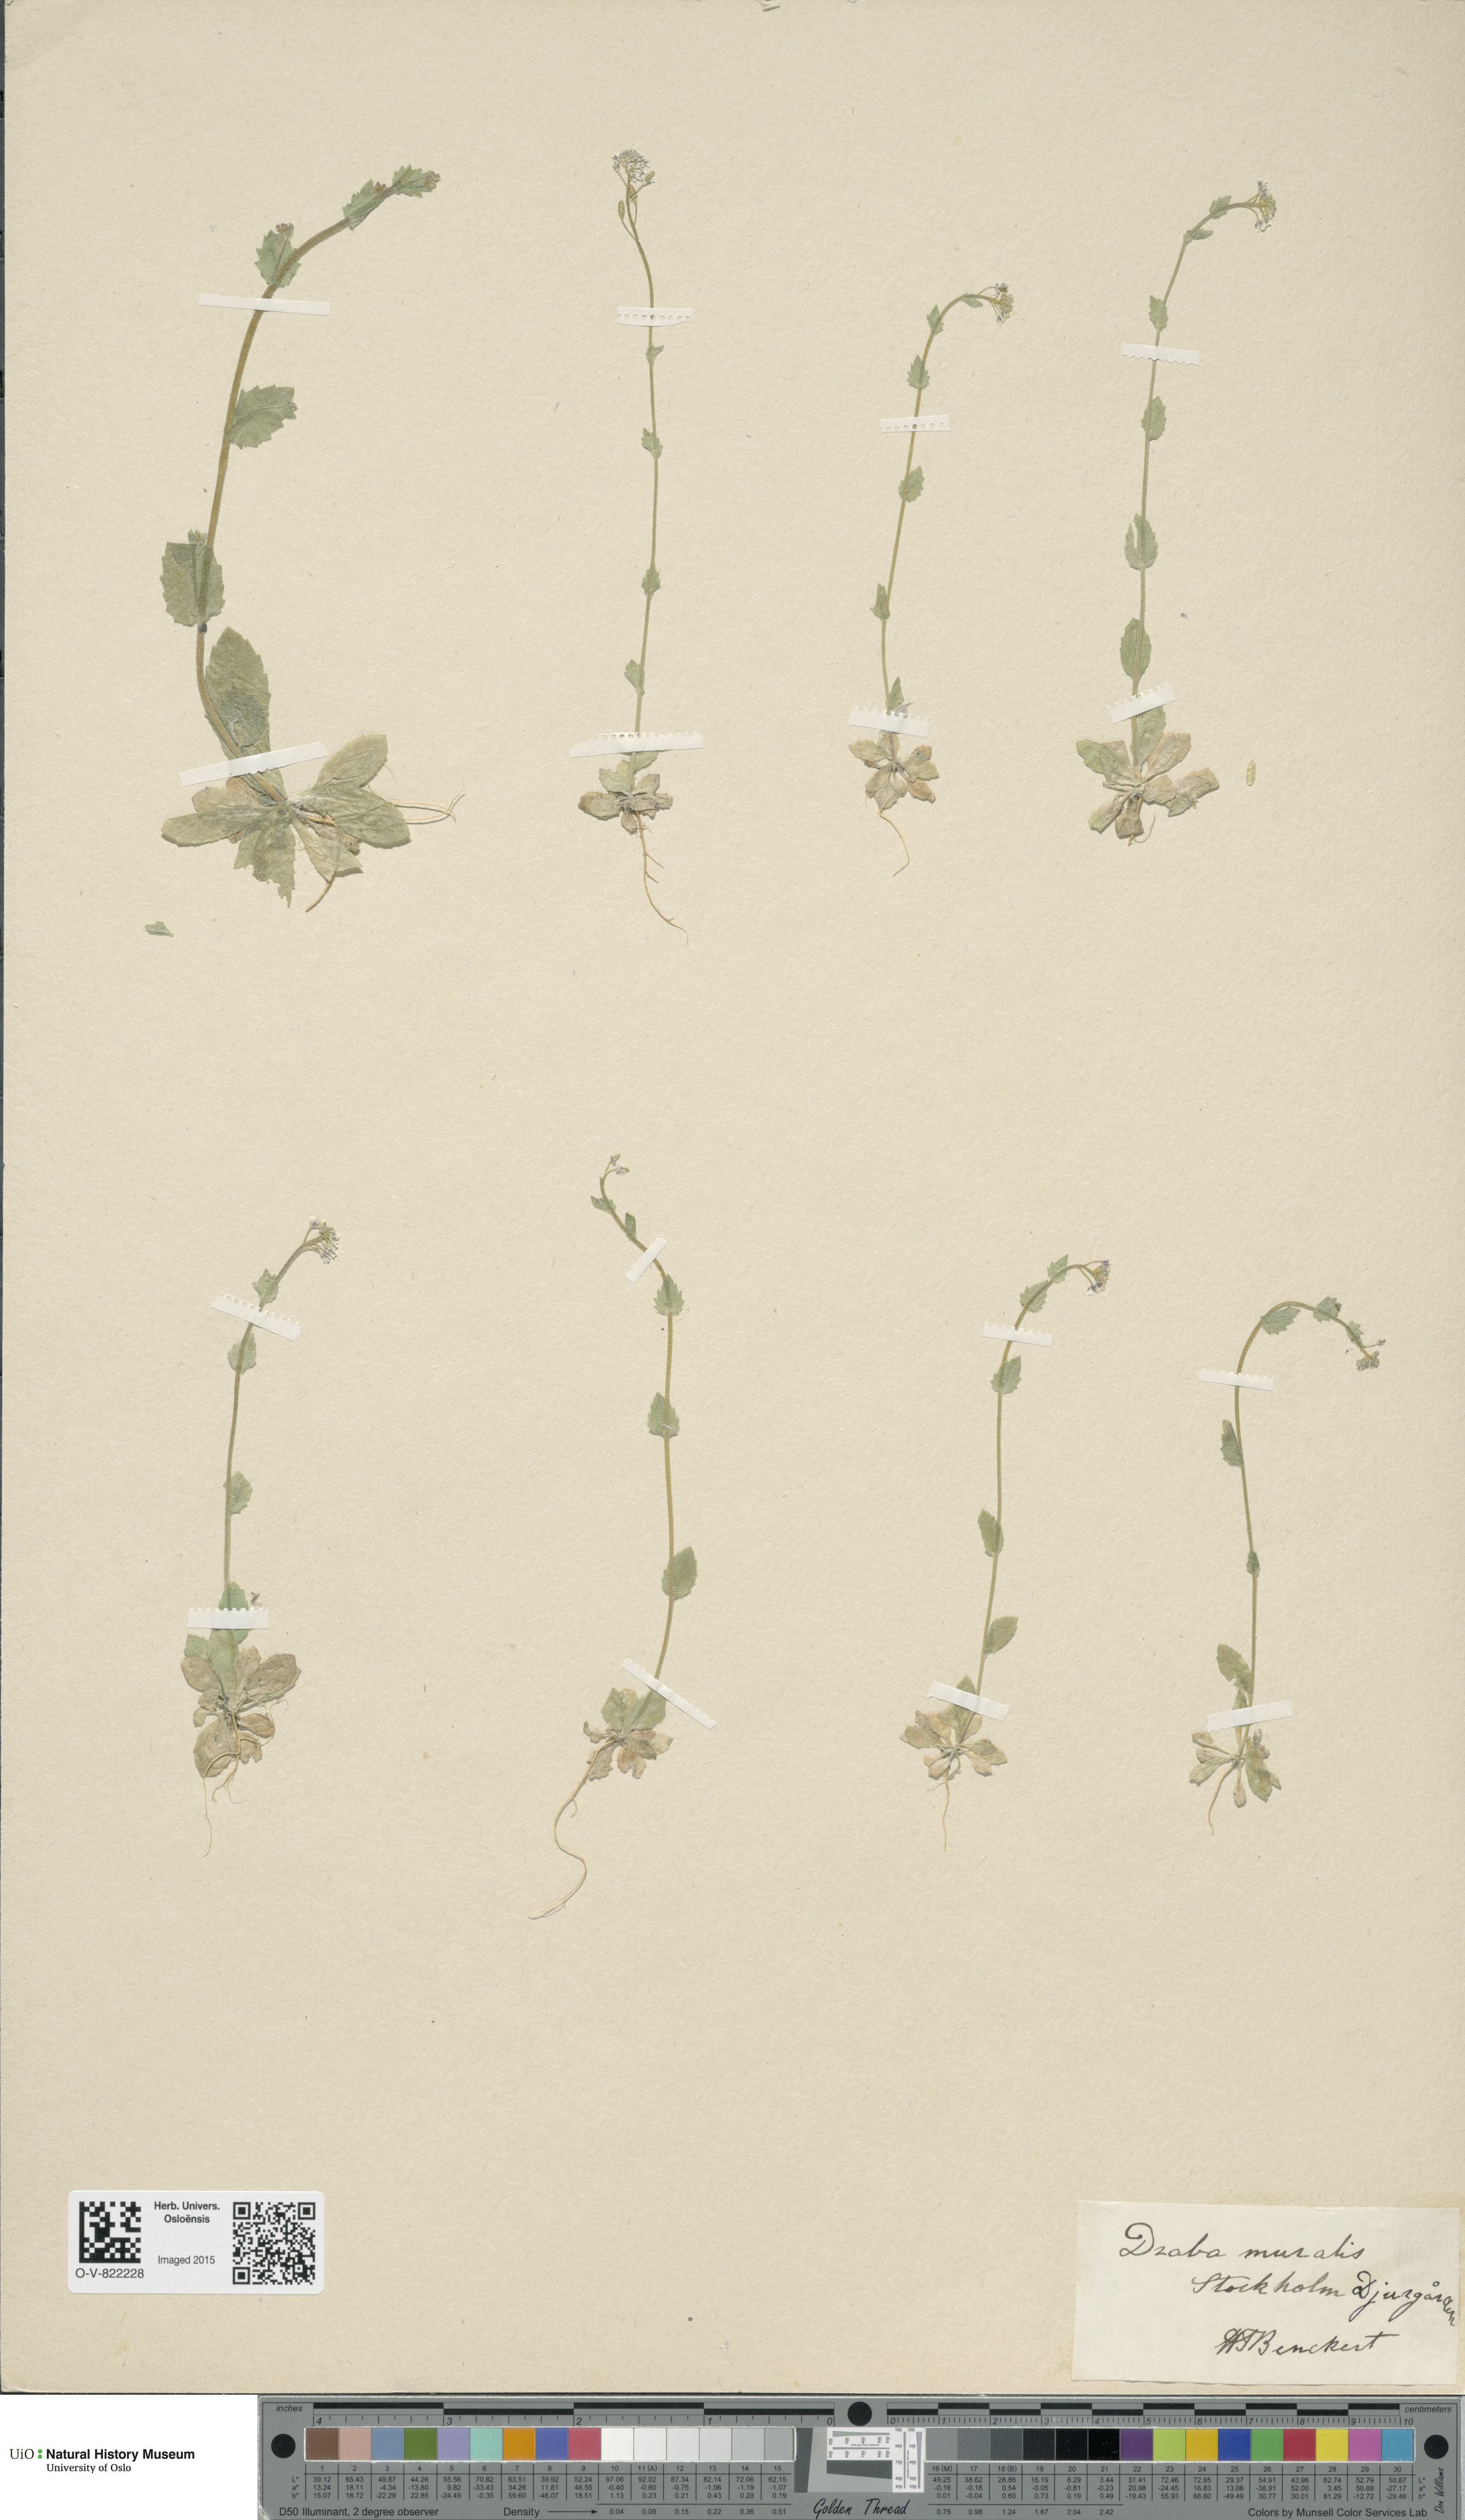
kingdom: Plantae
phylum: Tracheophyta
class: Magnoliopsida
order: Brassicales
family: Brassicaceae
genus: Drabella
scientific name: Drabella muralis
